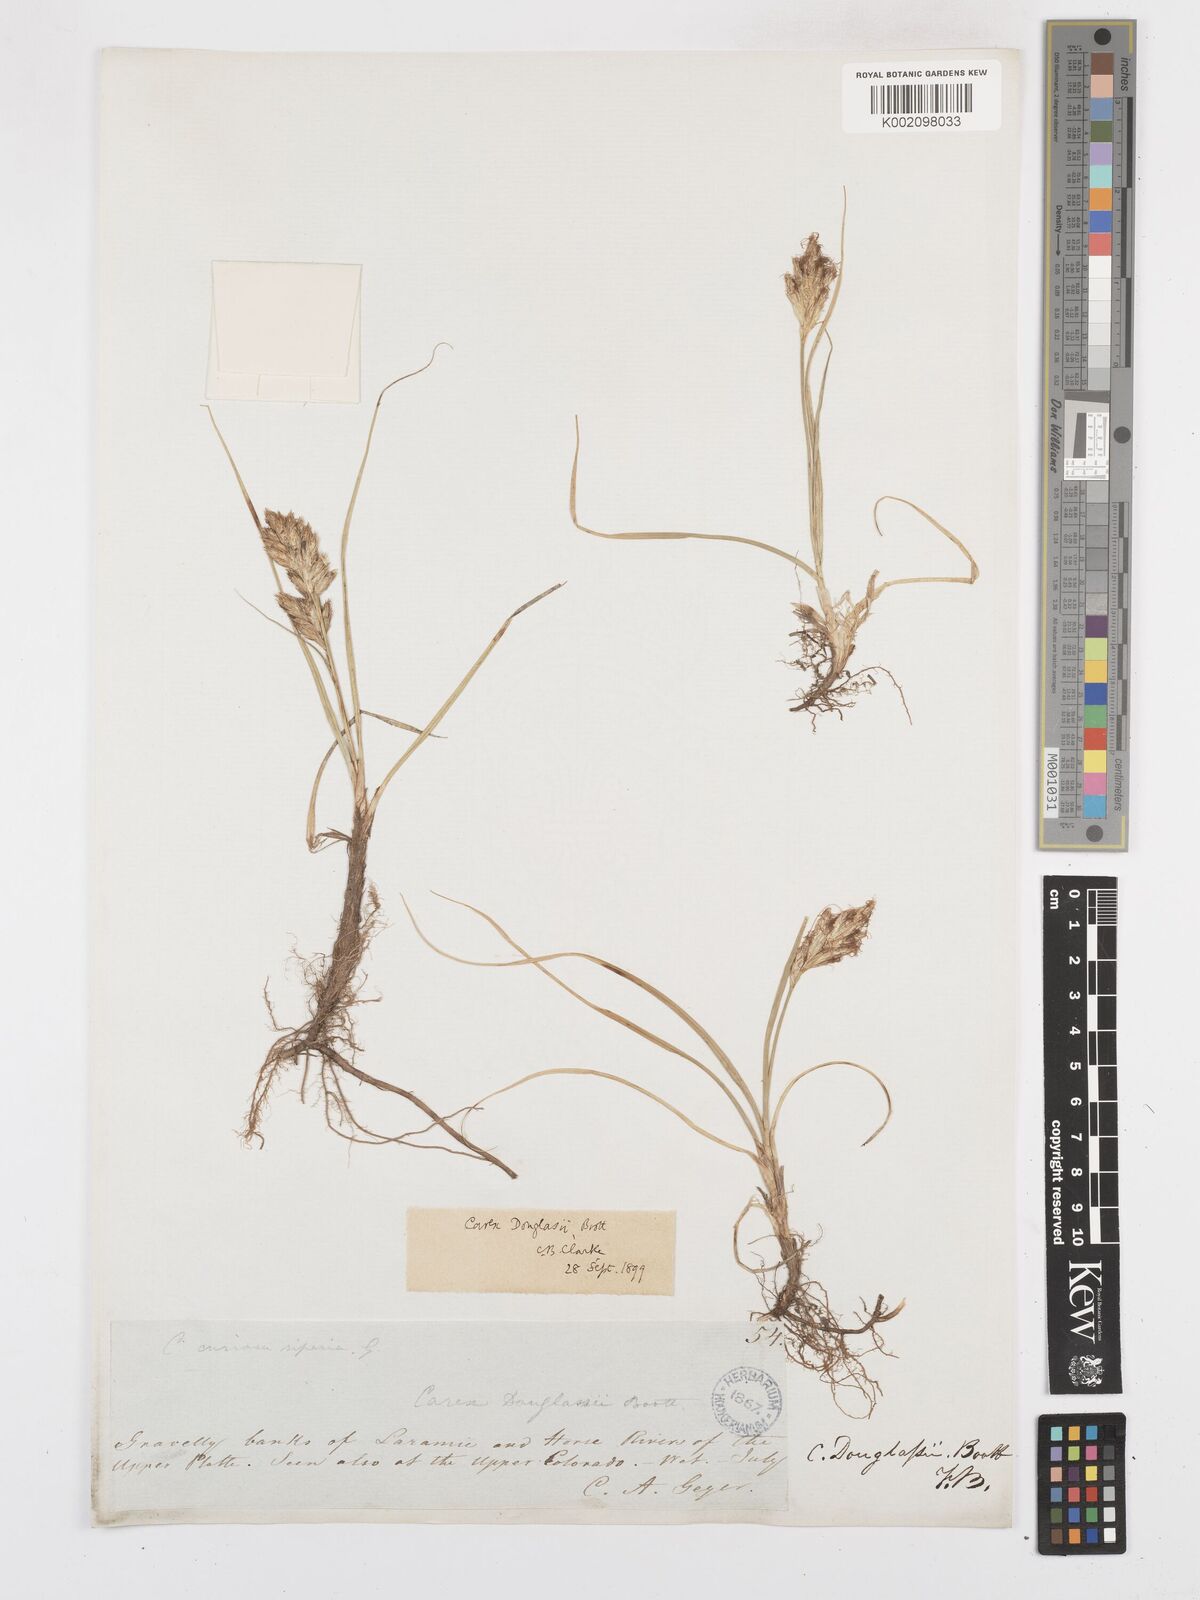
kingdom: Plantae
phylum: Tracheophyta
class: Liliopsida
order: Poales
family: Cyperaceae
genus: Carex
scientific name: Carex douglasii
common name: Douglas' sedge
